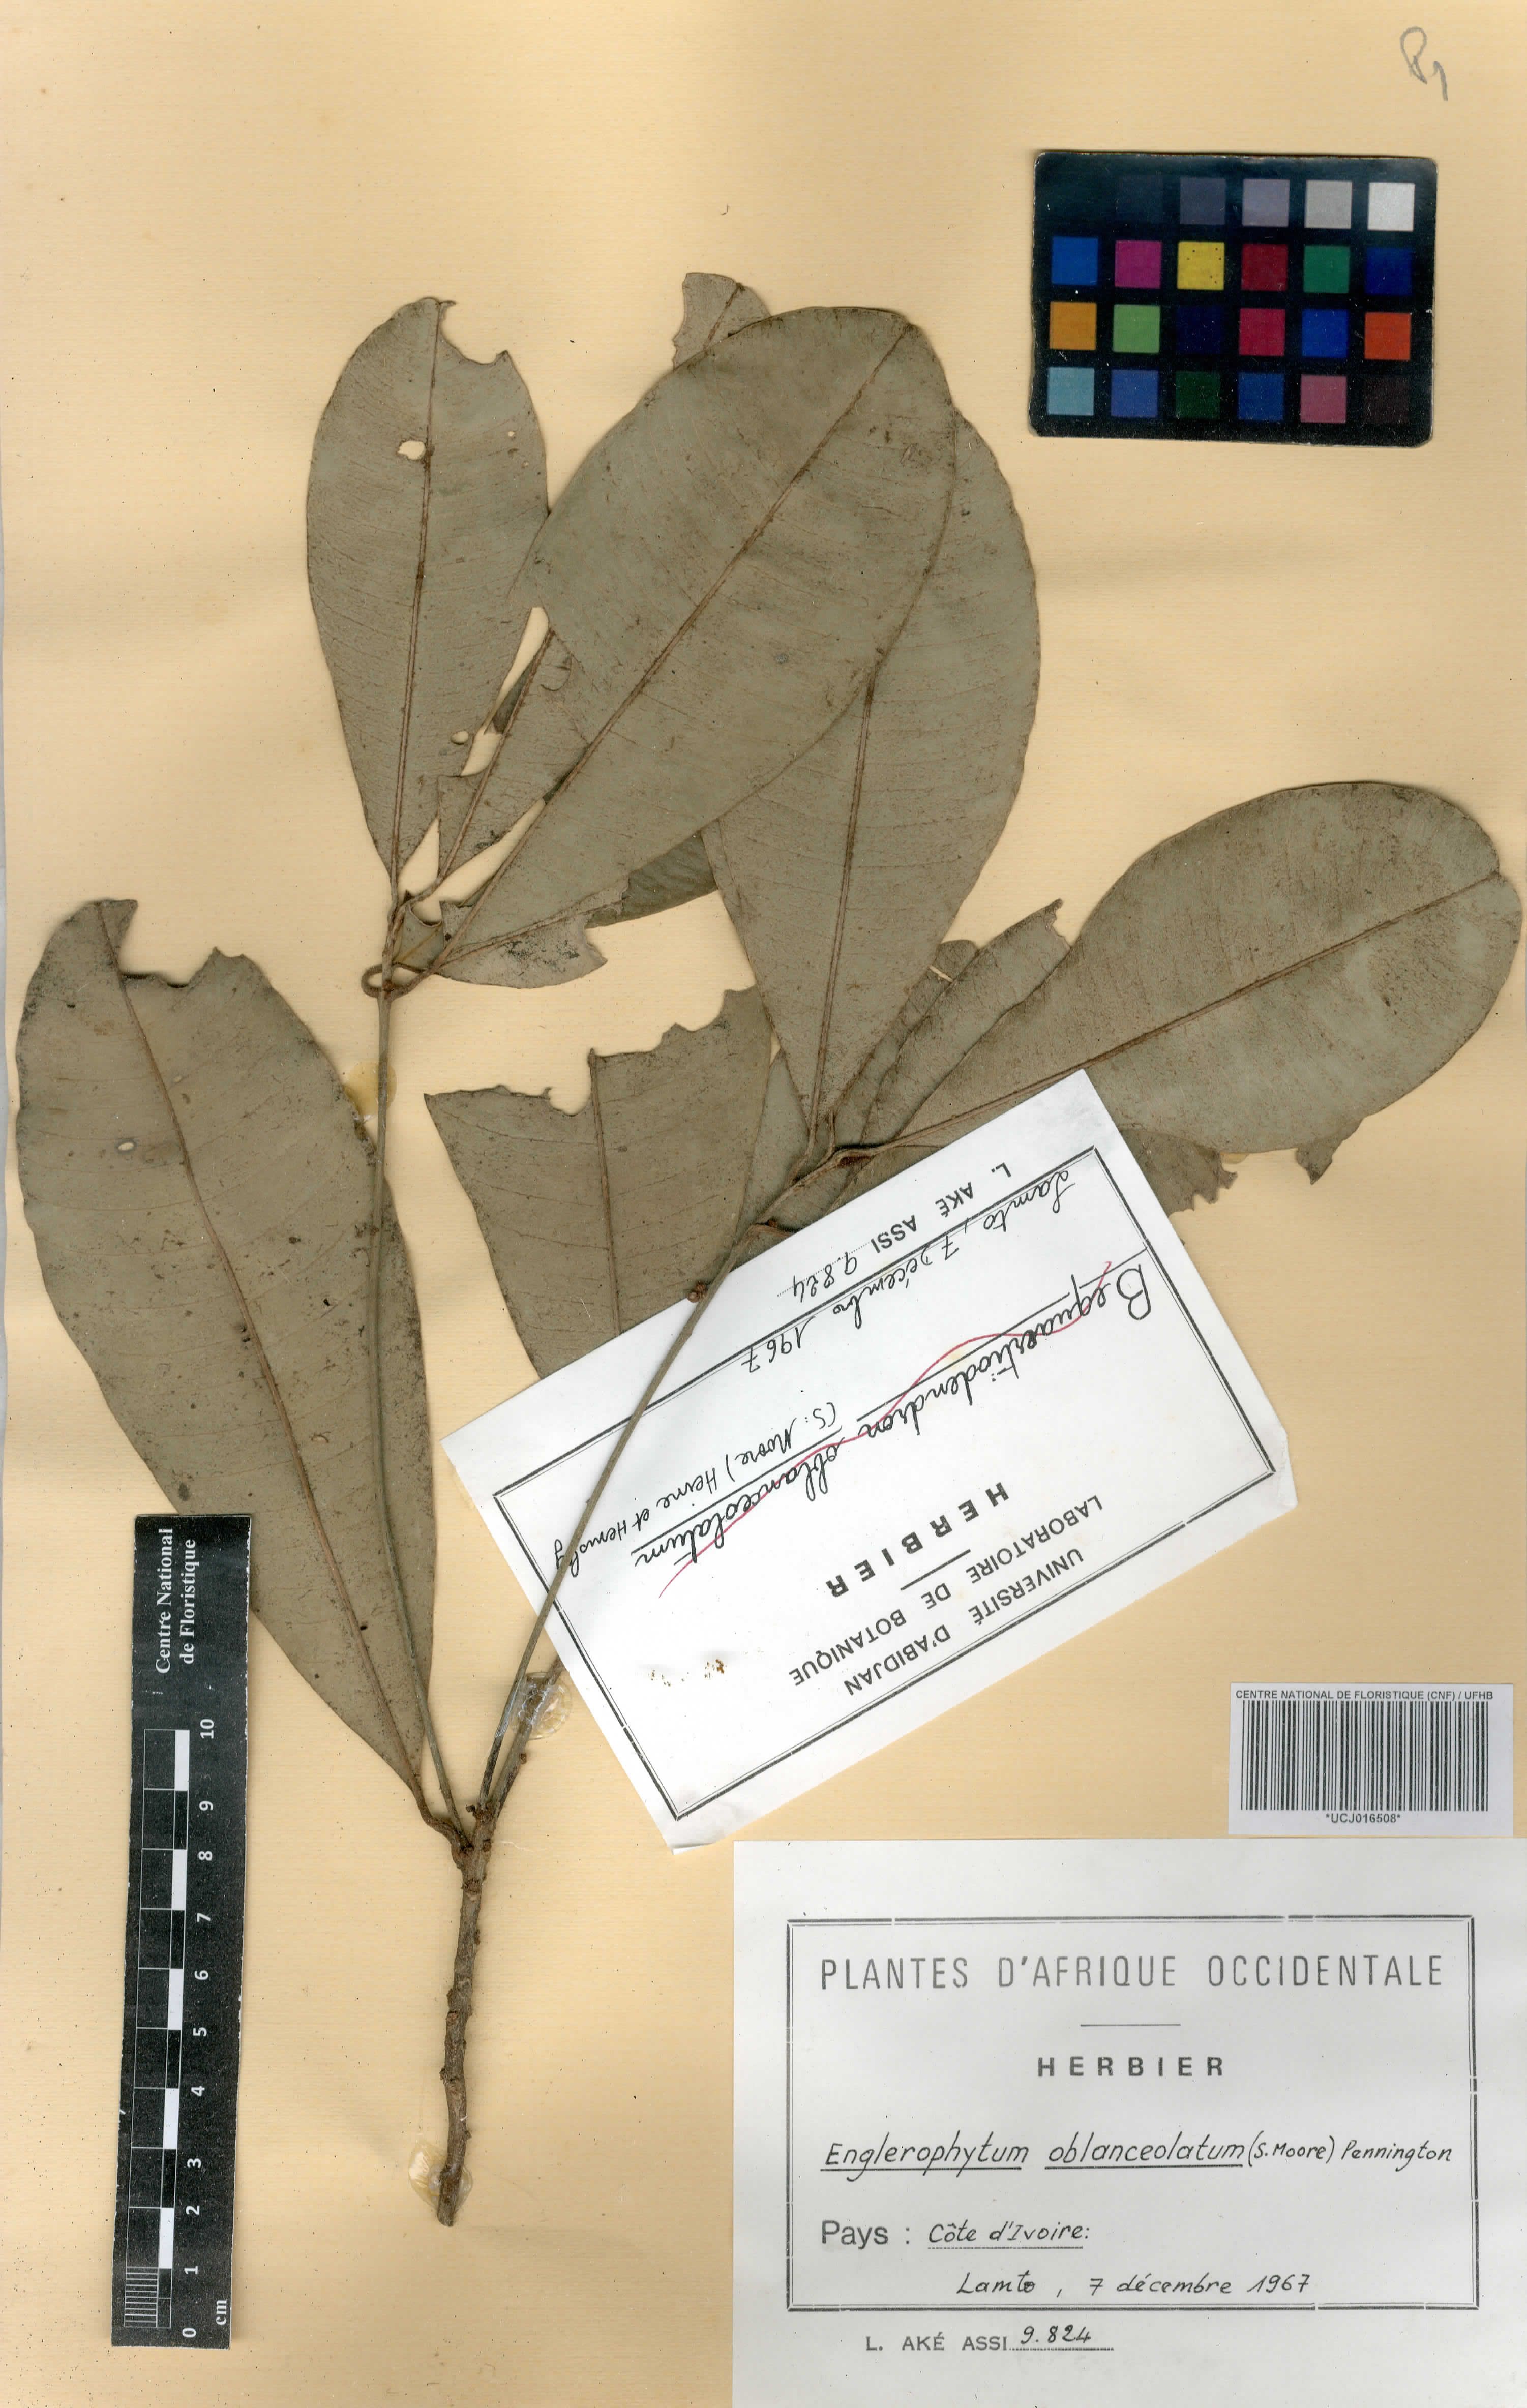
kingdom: Plantae
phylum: Tracheophyta
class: Magnoliopsida
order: Ericales
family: Sapotaceae
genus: Englerophytum
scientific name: Englerophytum oblanceolatum
